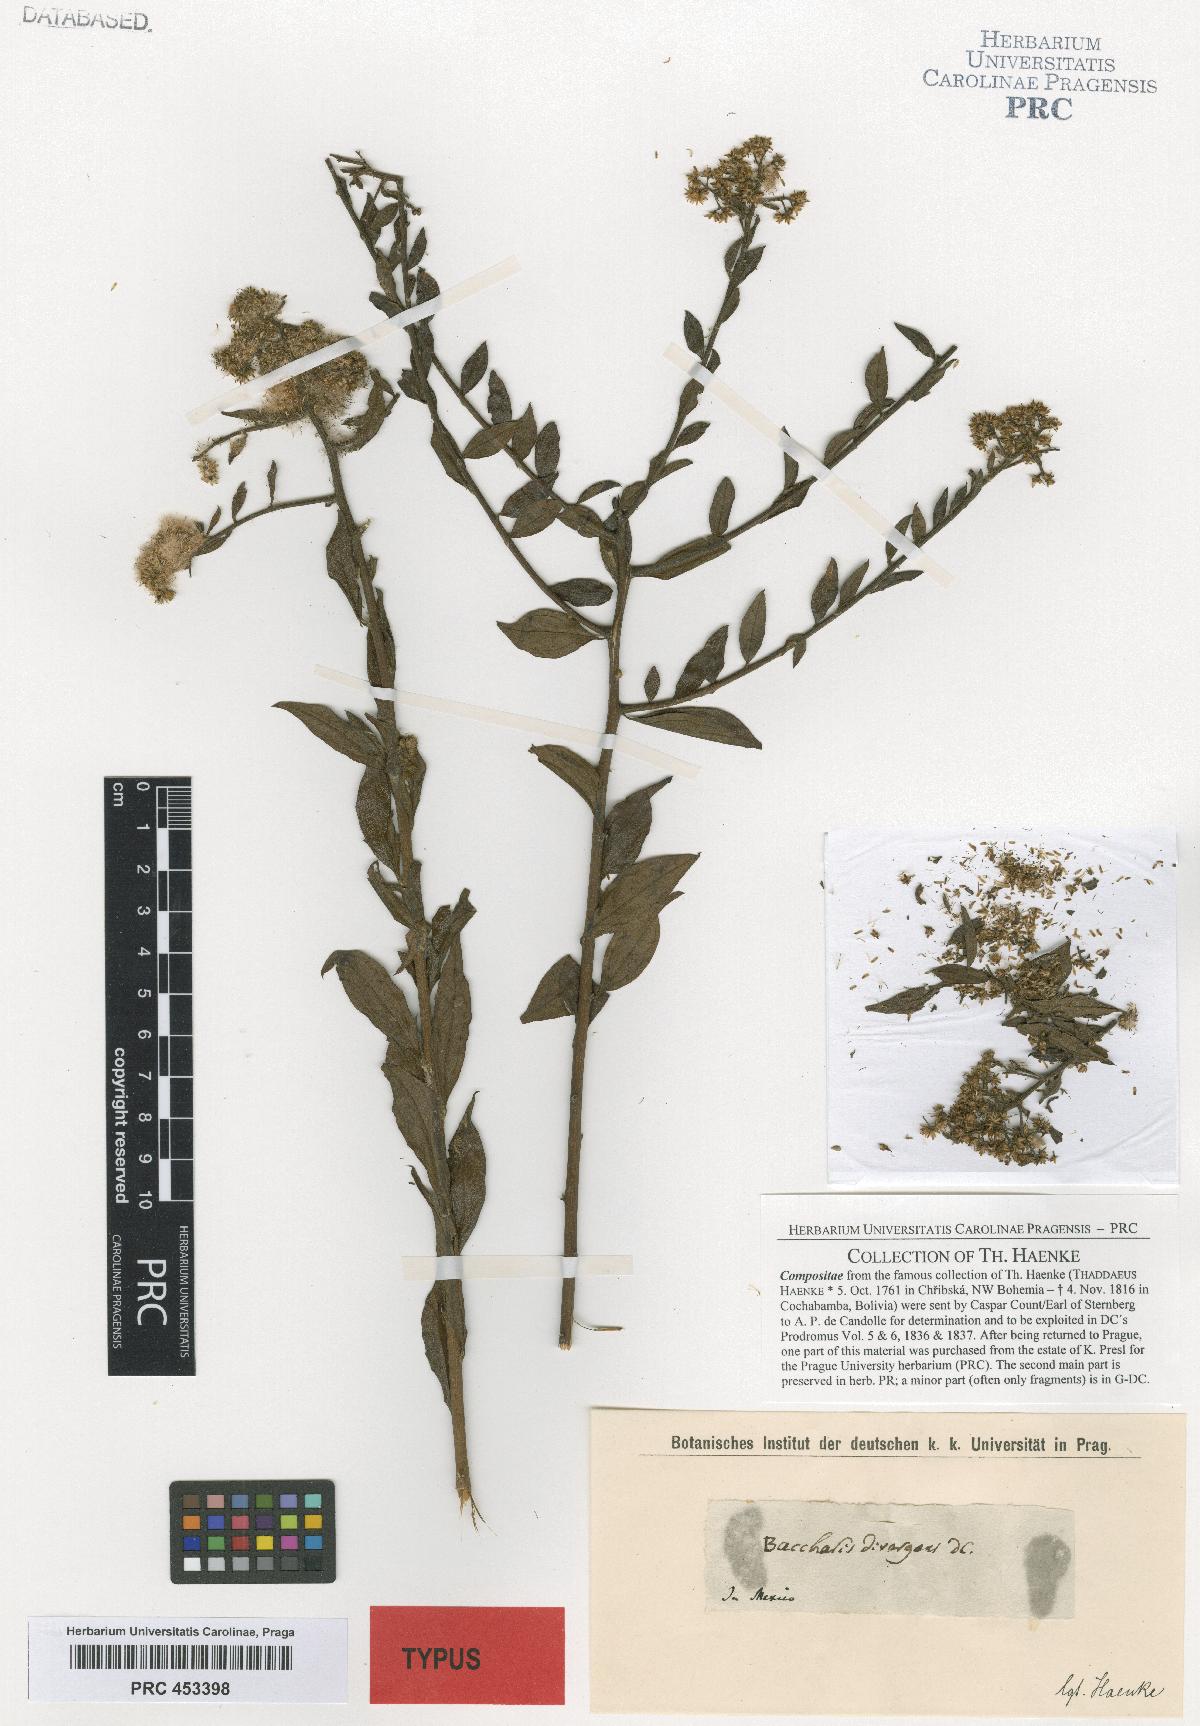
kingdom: Plantae
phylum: Tracheophyta
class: Magnoliopsida
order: Asterales
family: Asteraceae
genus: Baccharis
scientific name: Baccharis trinervis
